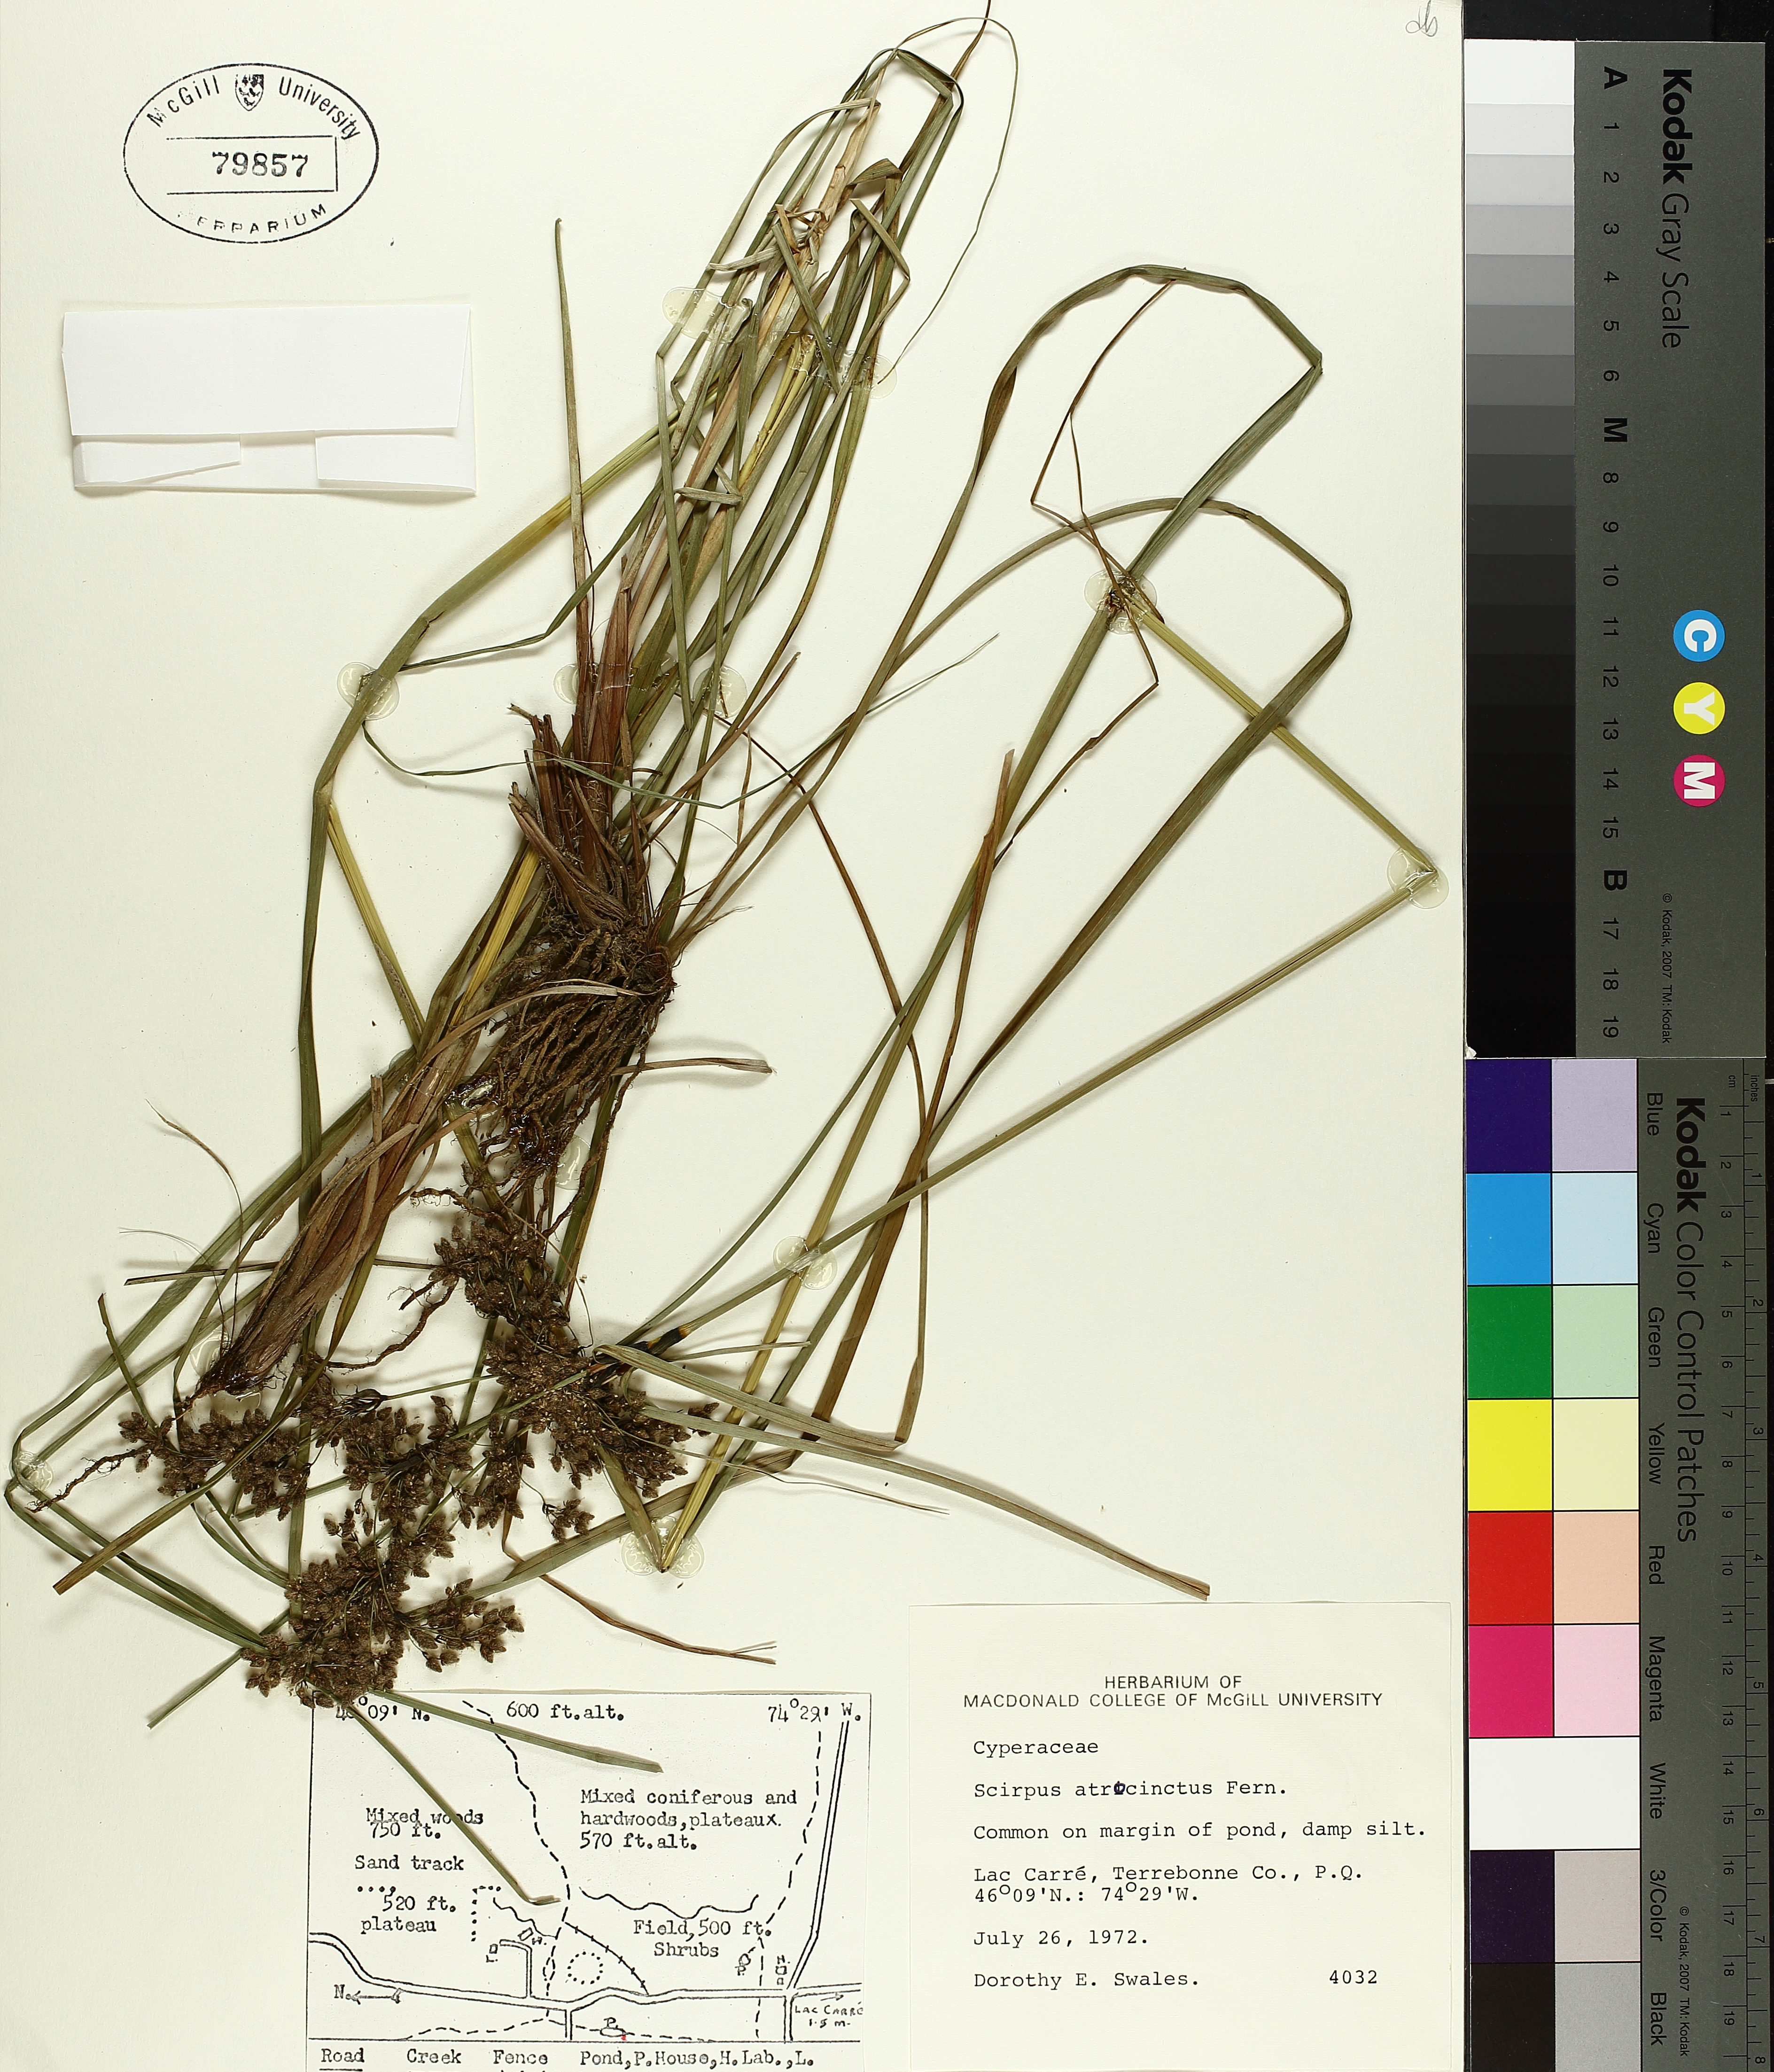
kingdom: Plantae
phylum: Tracheophyta
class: Liliopsida
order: Poales
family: Cyperaceae
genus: Scirpus
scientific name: Scirpus atrocinctus
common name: Black-girdled bulrush
